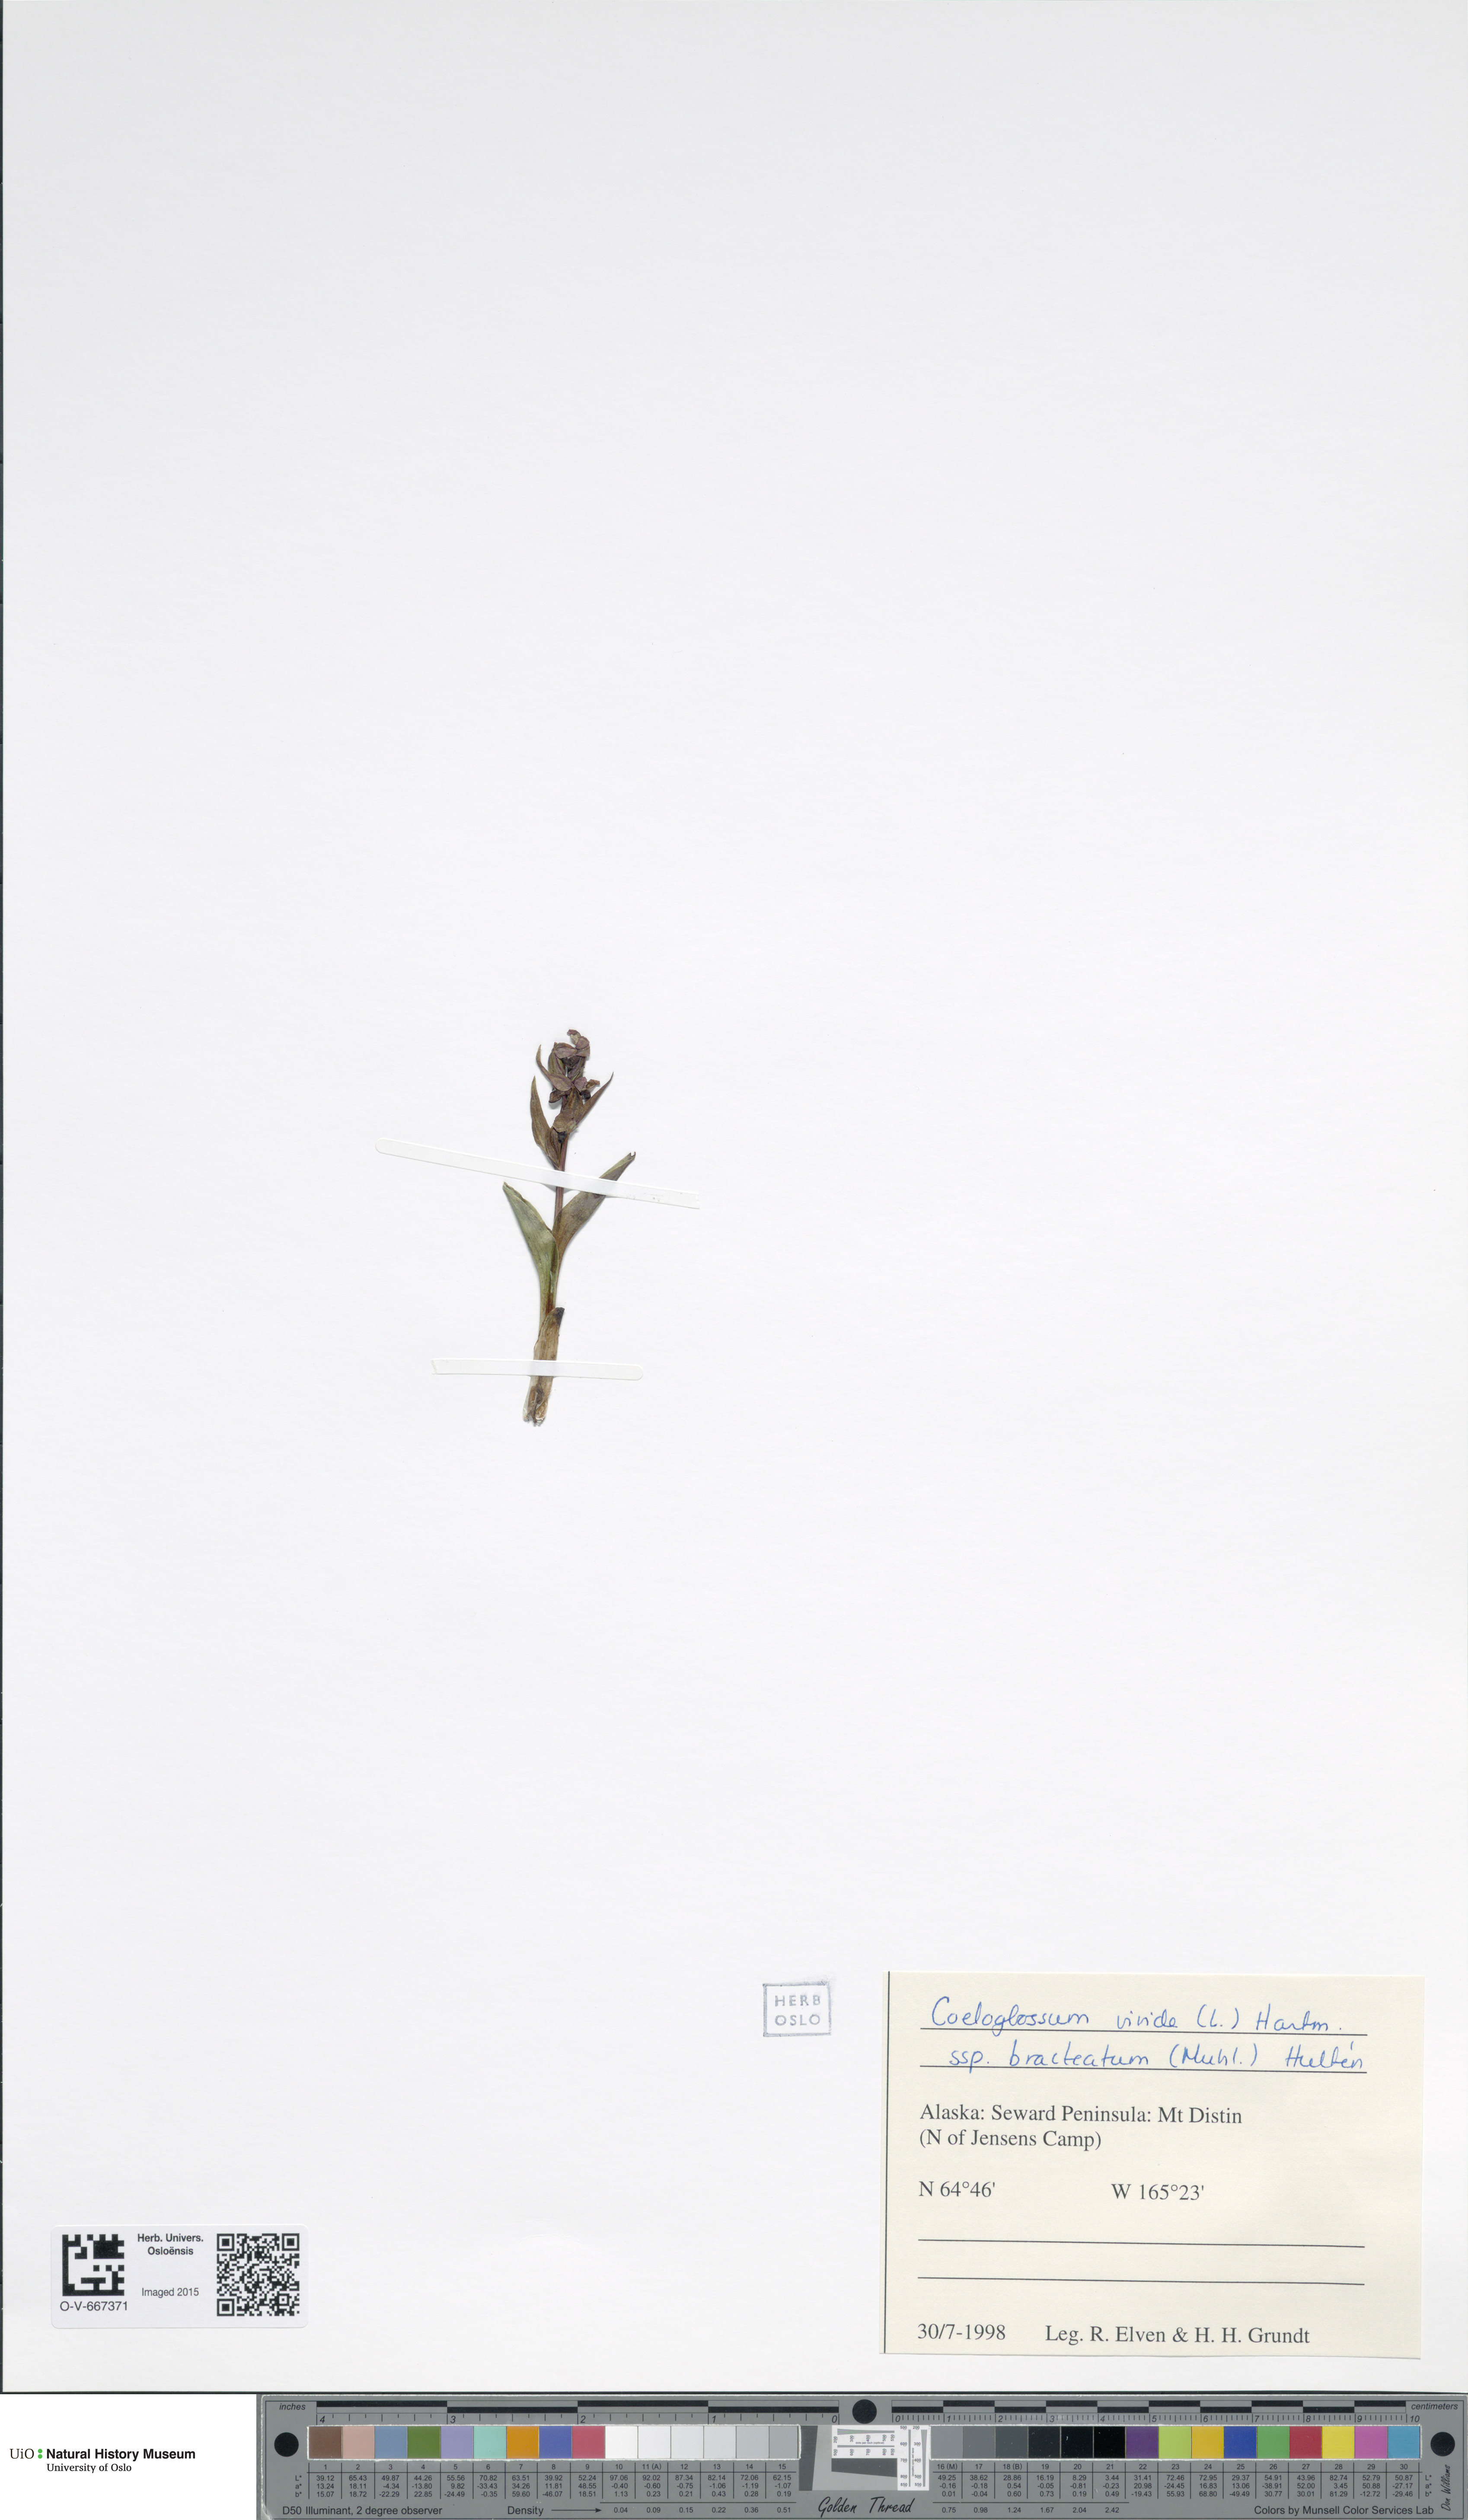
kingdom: Plantae
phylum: Tracheophyta
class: Liliopsida
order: Asparagales
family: Orchidaceae
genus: Dactylorhiza
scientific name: Dactylorhiza viridis
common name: Longbract frog orchid
